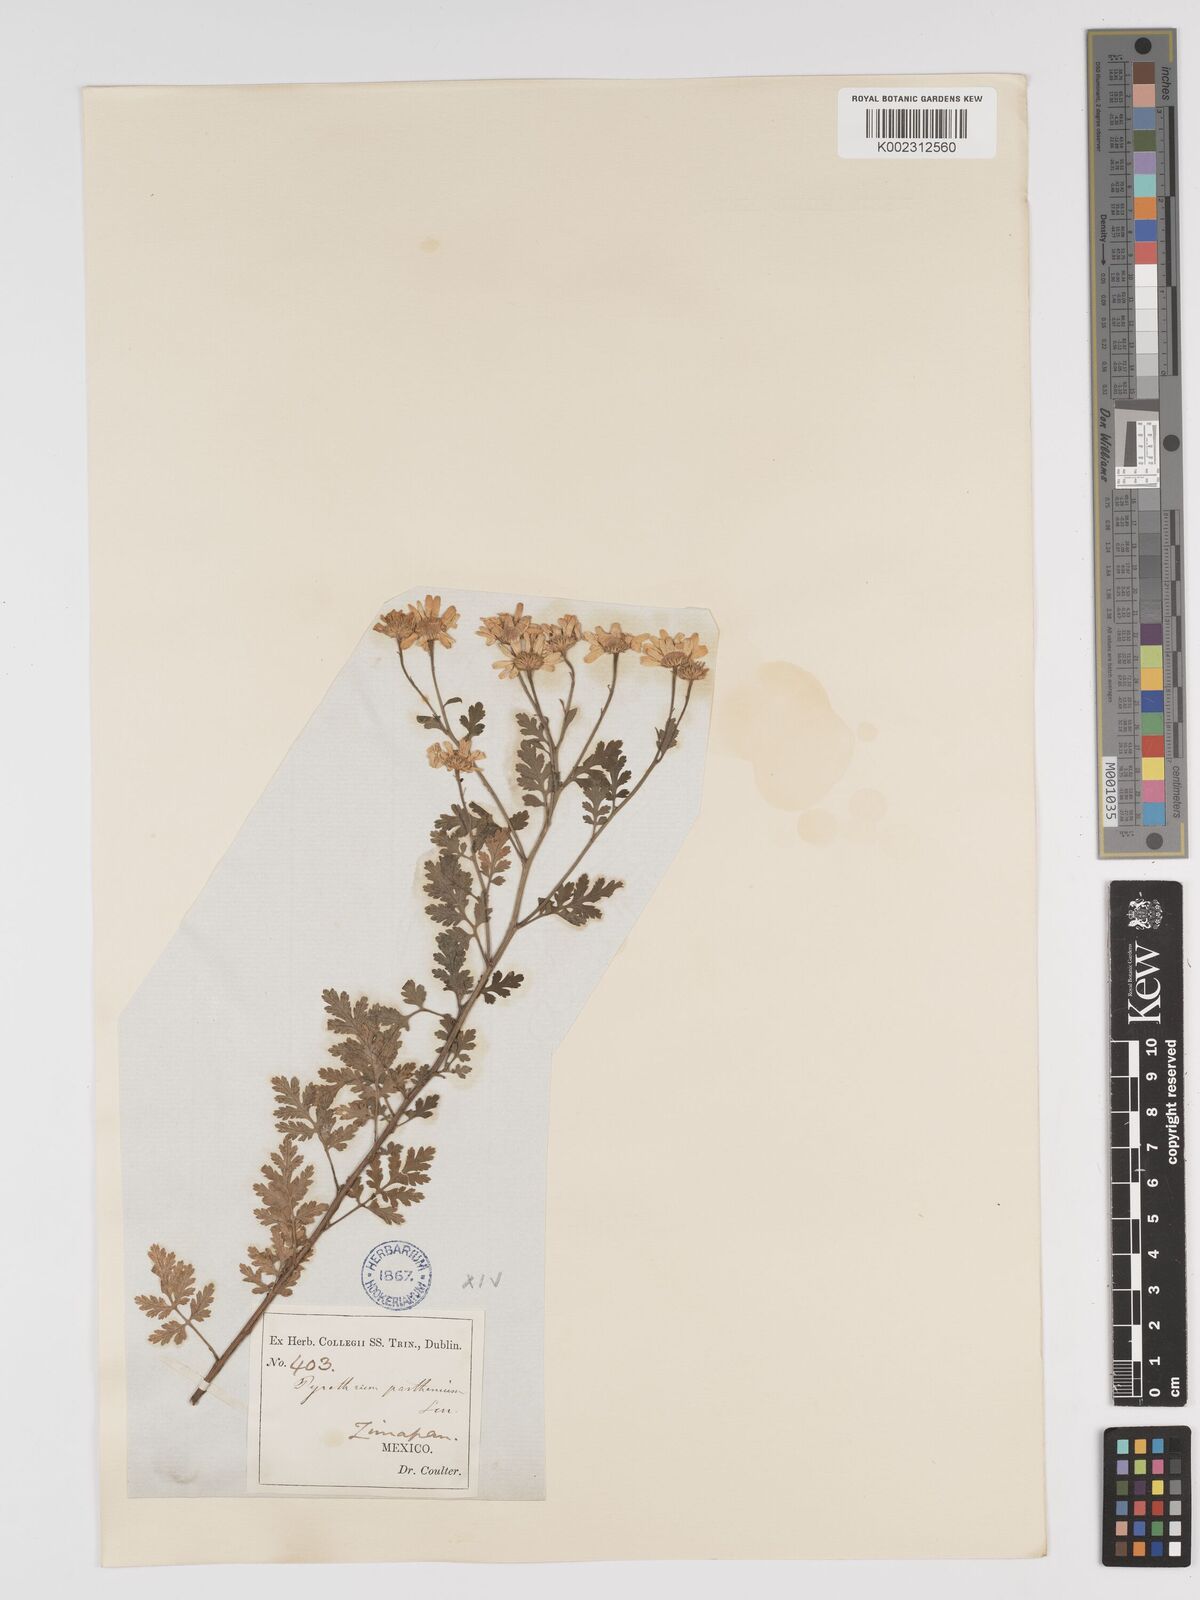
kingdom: Plantae
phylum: Tracheophyta
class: Magnoliopsida
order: Asterales
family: Asteraceae
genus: Tanacetum
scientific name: Tanacetum parthenium
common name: Feverfew
